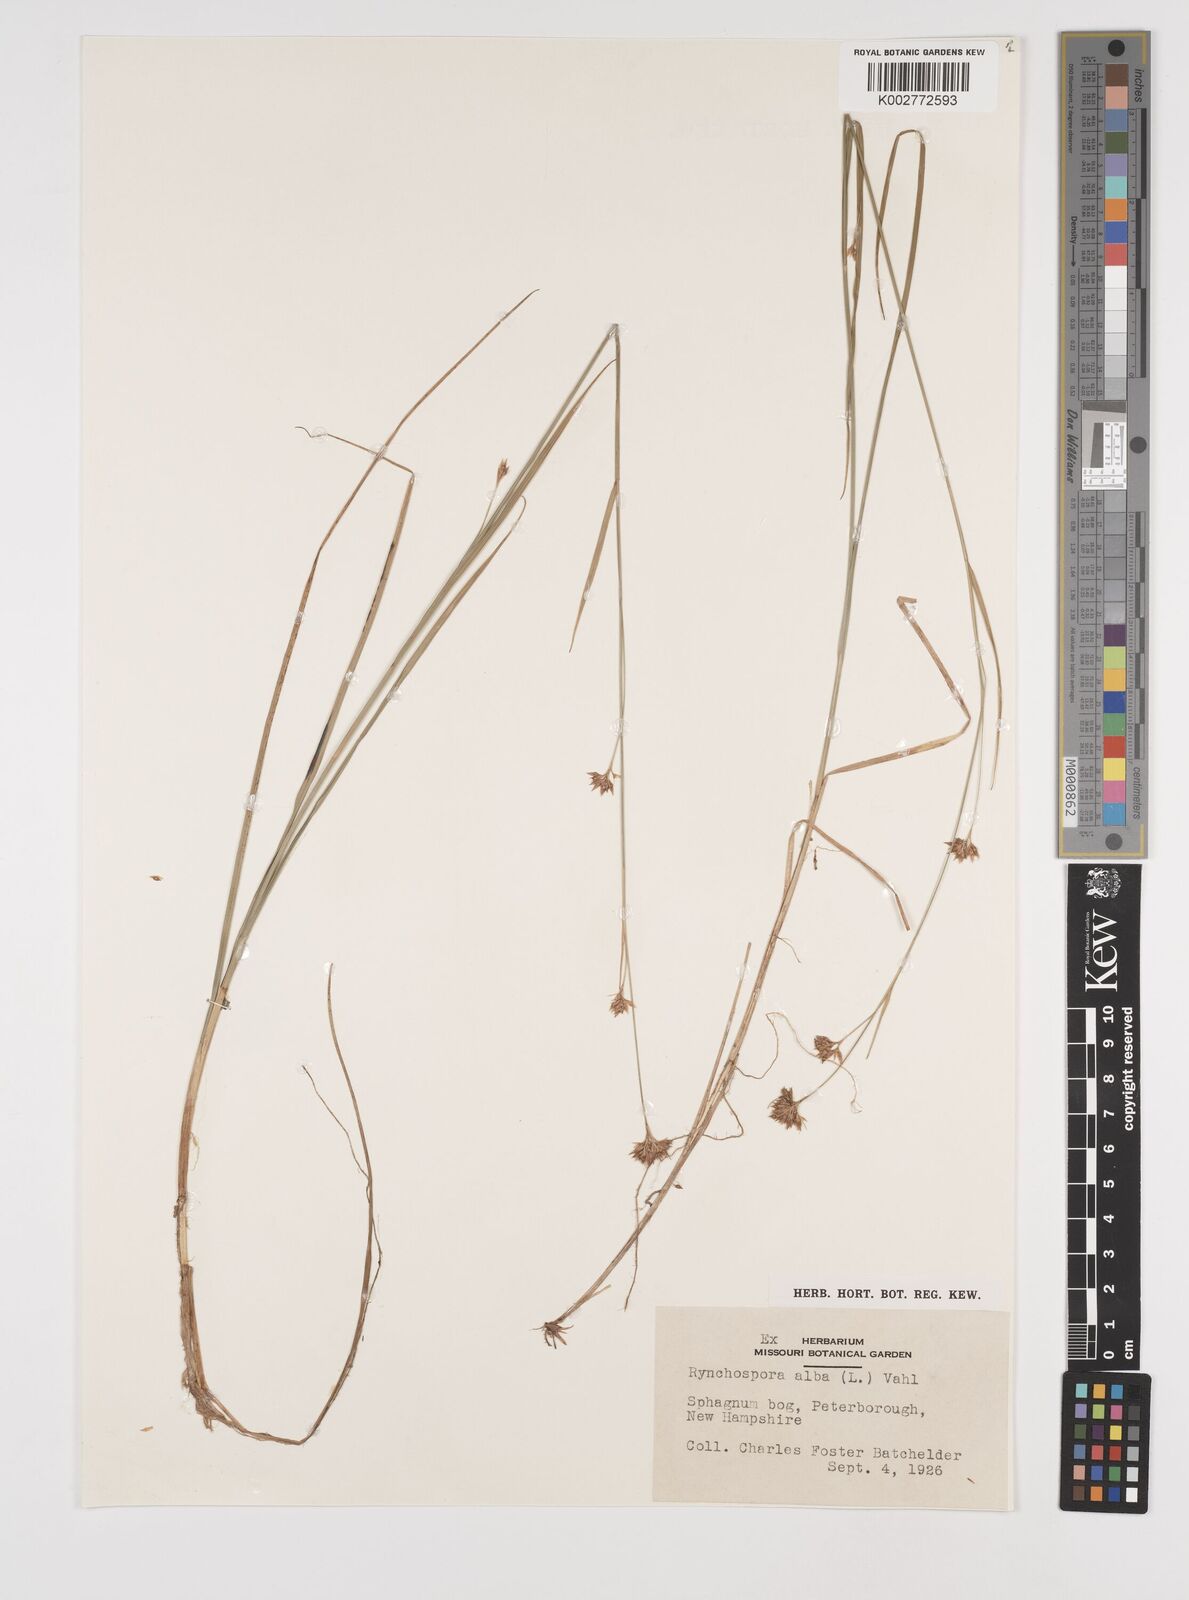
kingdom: Plantae
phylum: Tracheophyta
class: Liliopsida
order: Poales
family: Cyperaceae
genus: Rhynchospora
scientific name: Rhynchospora alba
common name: White beak-sedge
